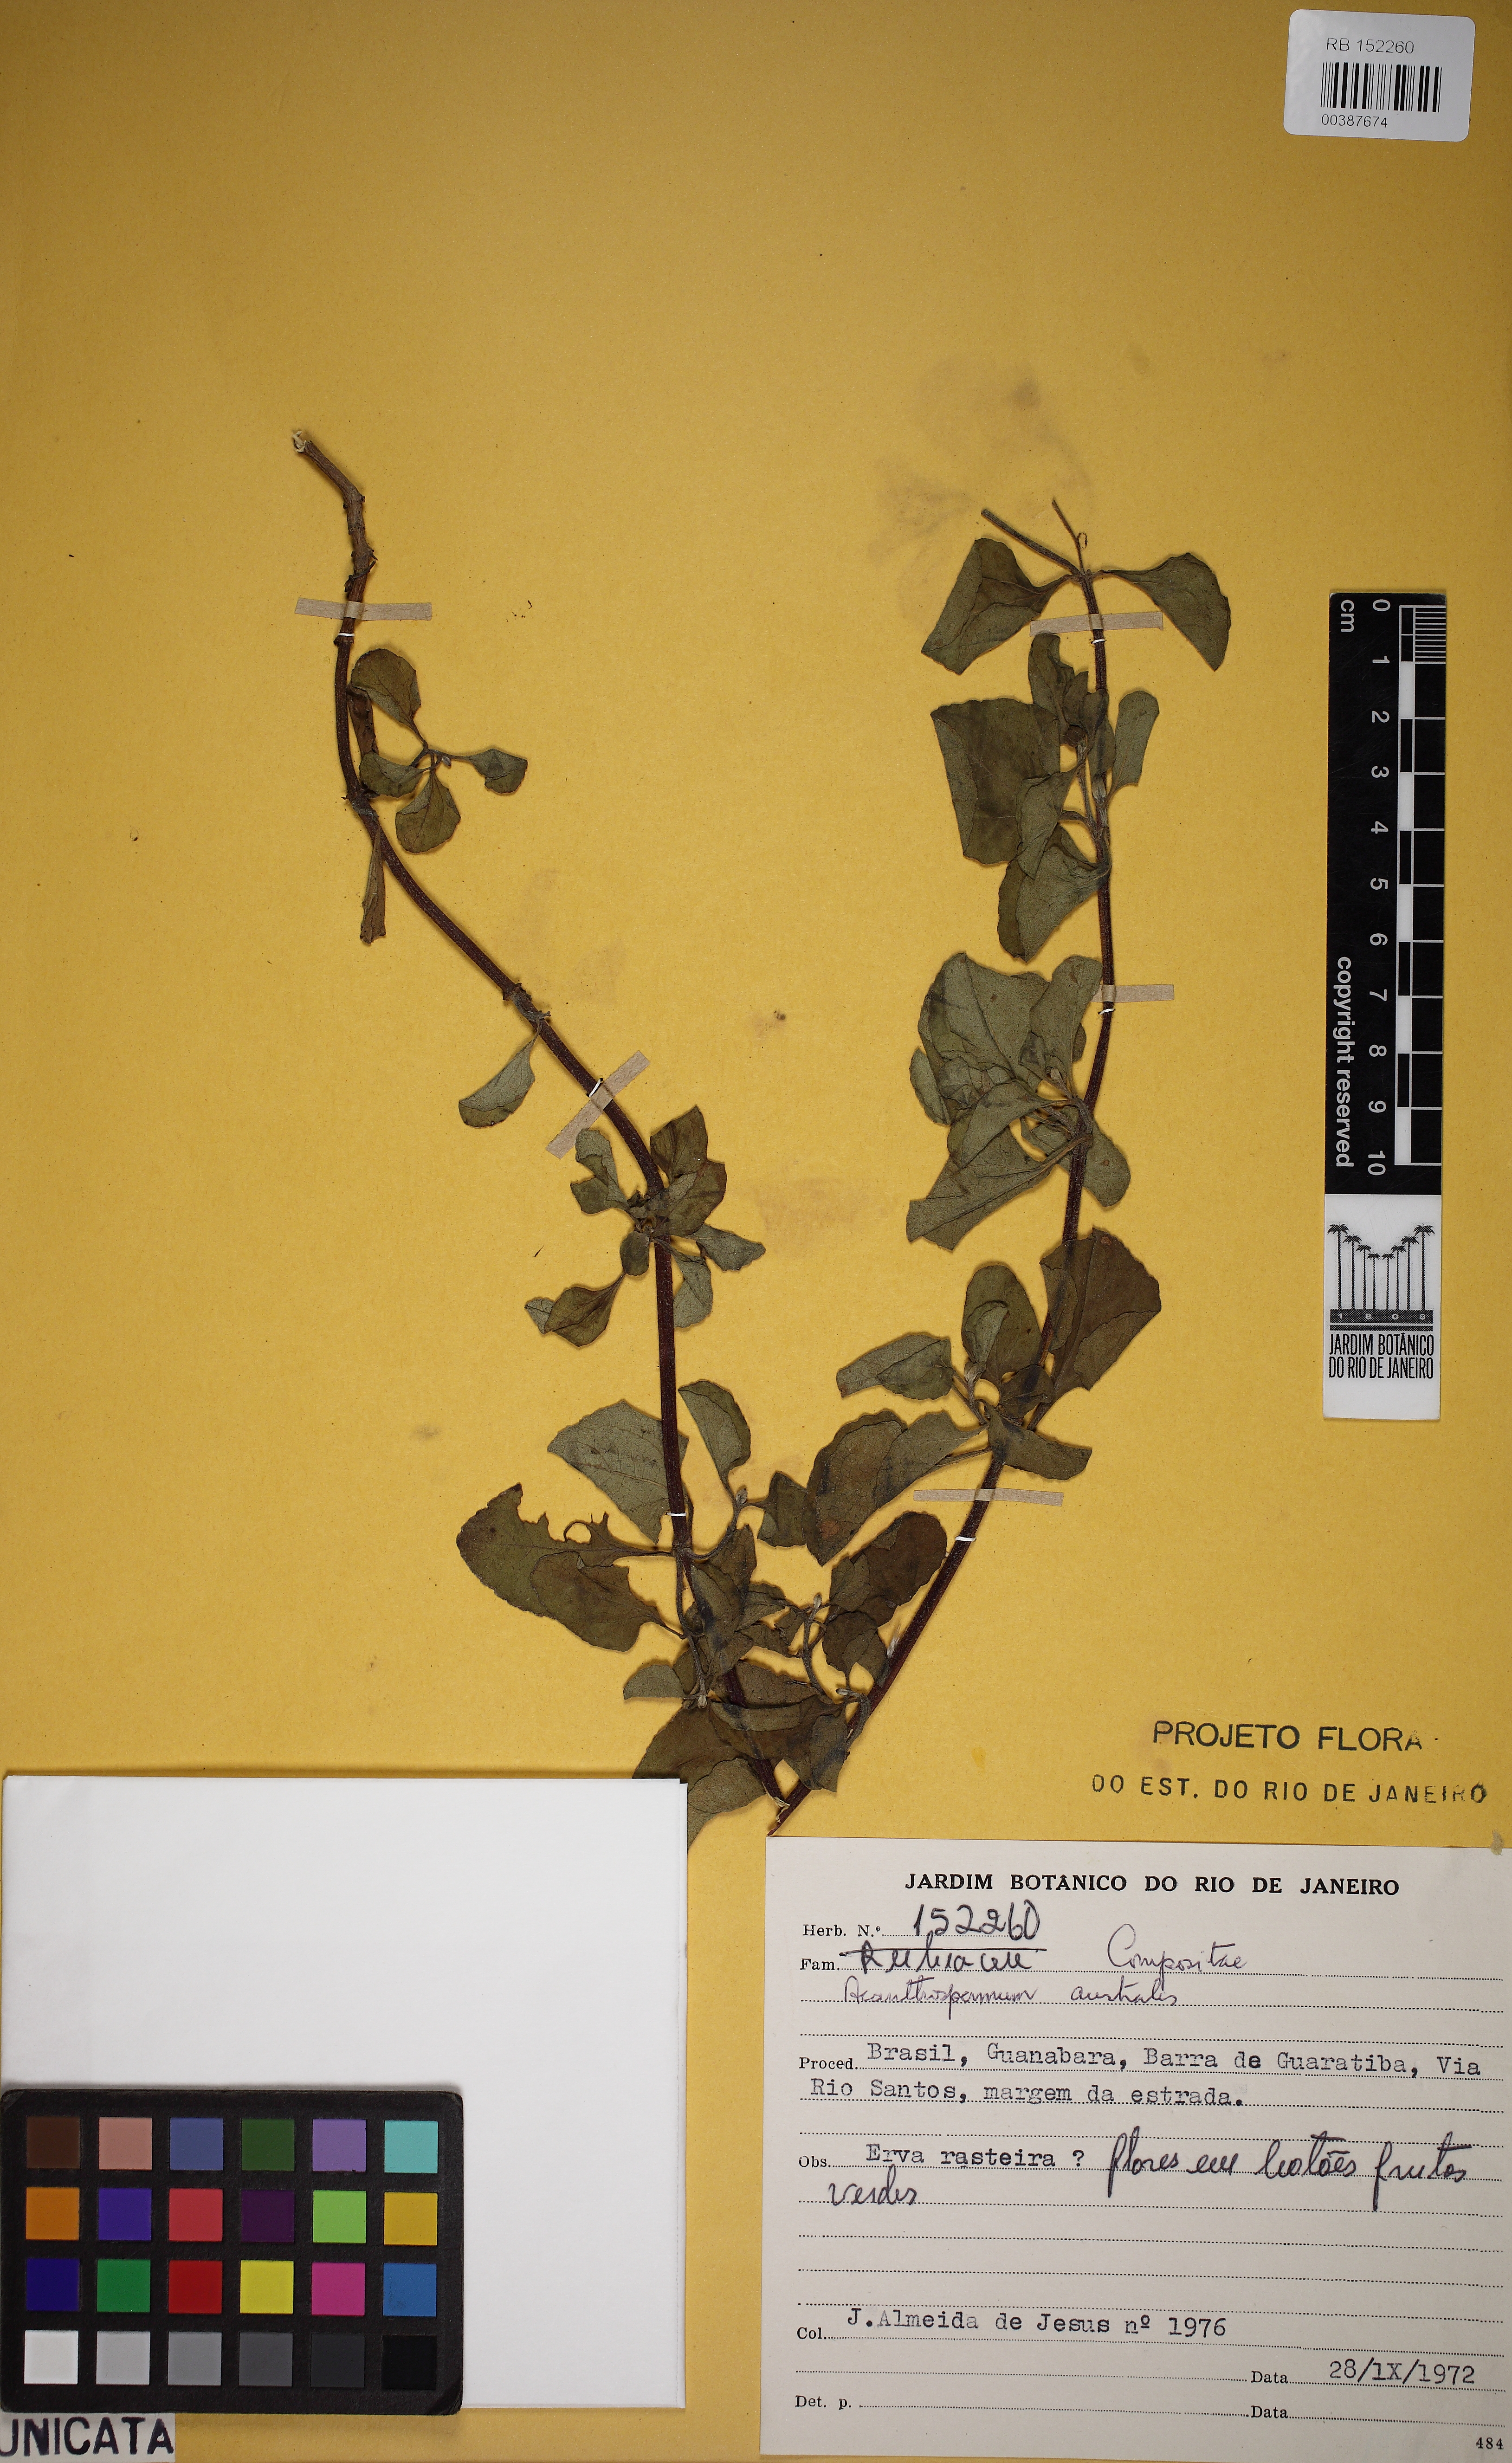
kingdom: Plantae
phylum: Tracheophyta
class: Magnoliopsida
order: Asterales
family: Asteraceae
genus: Acanthospermum
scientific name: Acanthospermum australe
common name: Paraguayan starbur
